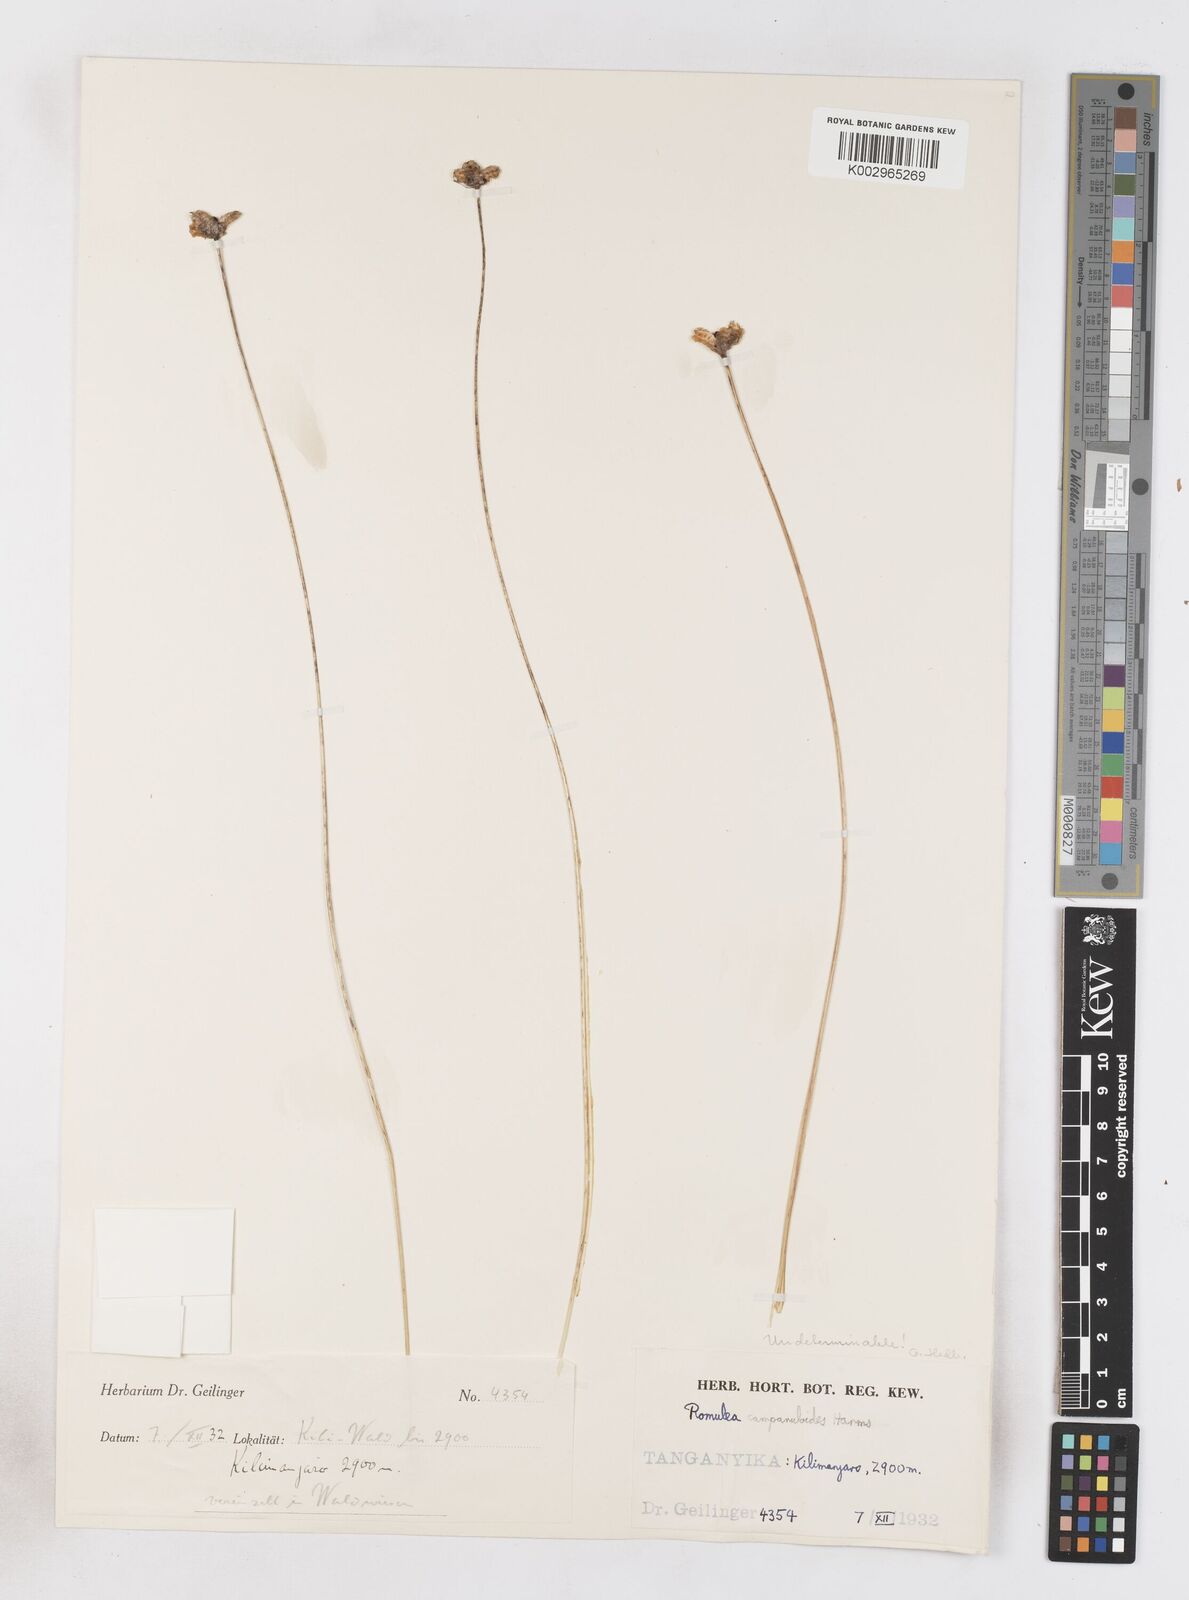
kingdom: Plantae
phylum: Tracheophyta
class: Liliopsida
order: Asparagales
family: Iridaceae
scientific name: Iridaceae
